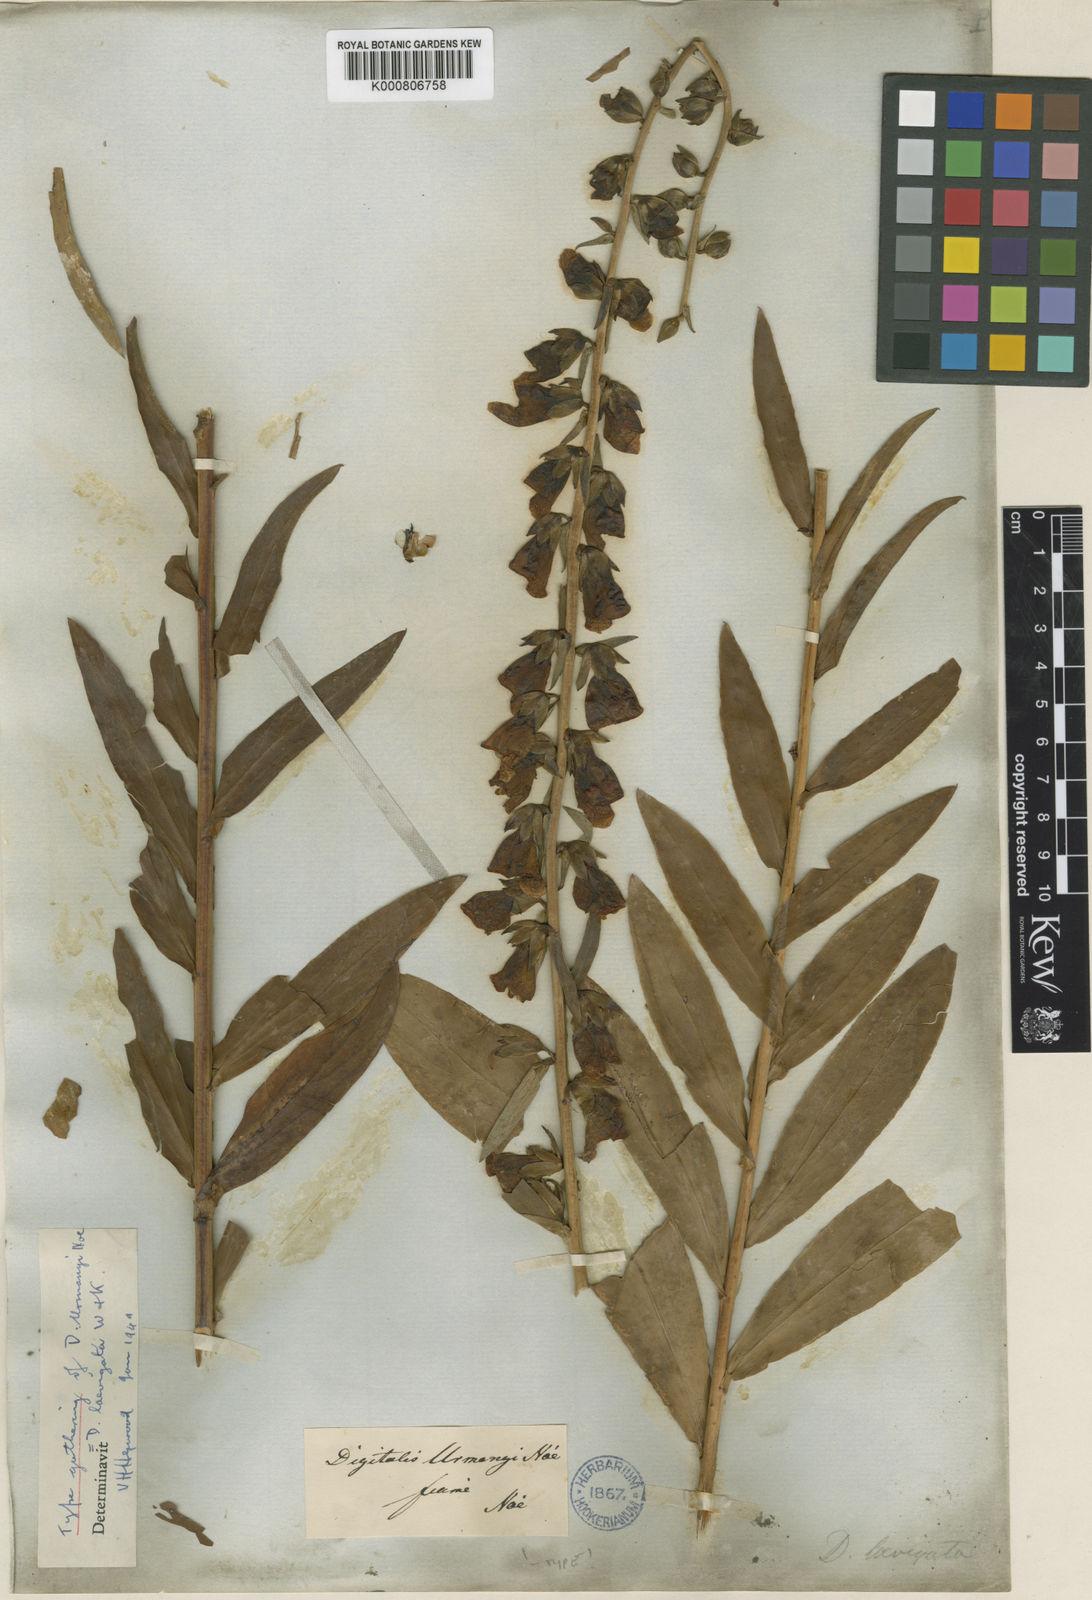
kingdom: Plantae
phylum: Tracheophyta
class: Magnoliopsida
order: Lamiales
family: Plantaginaceae
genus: Digitalis
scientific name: Digitalis laevigata
